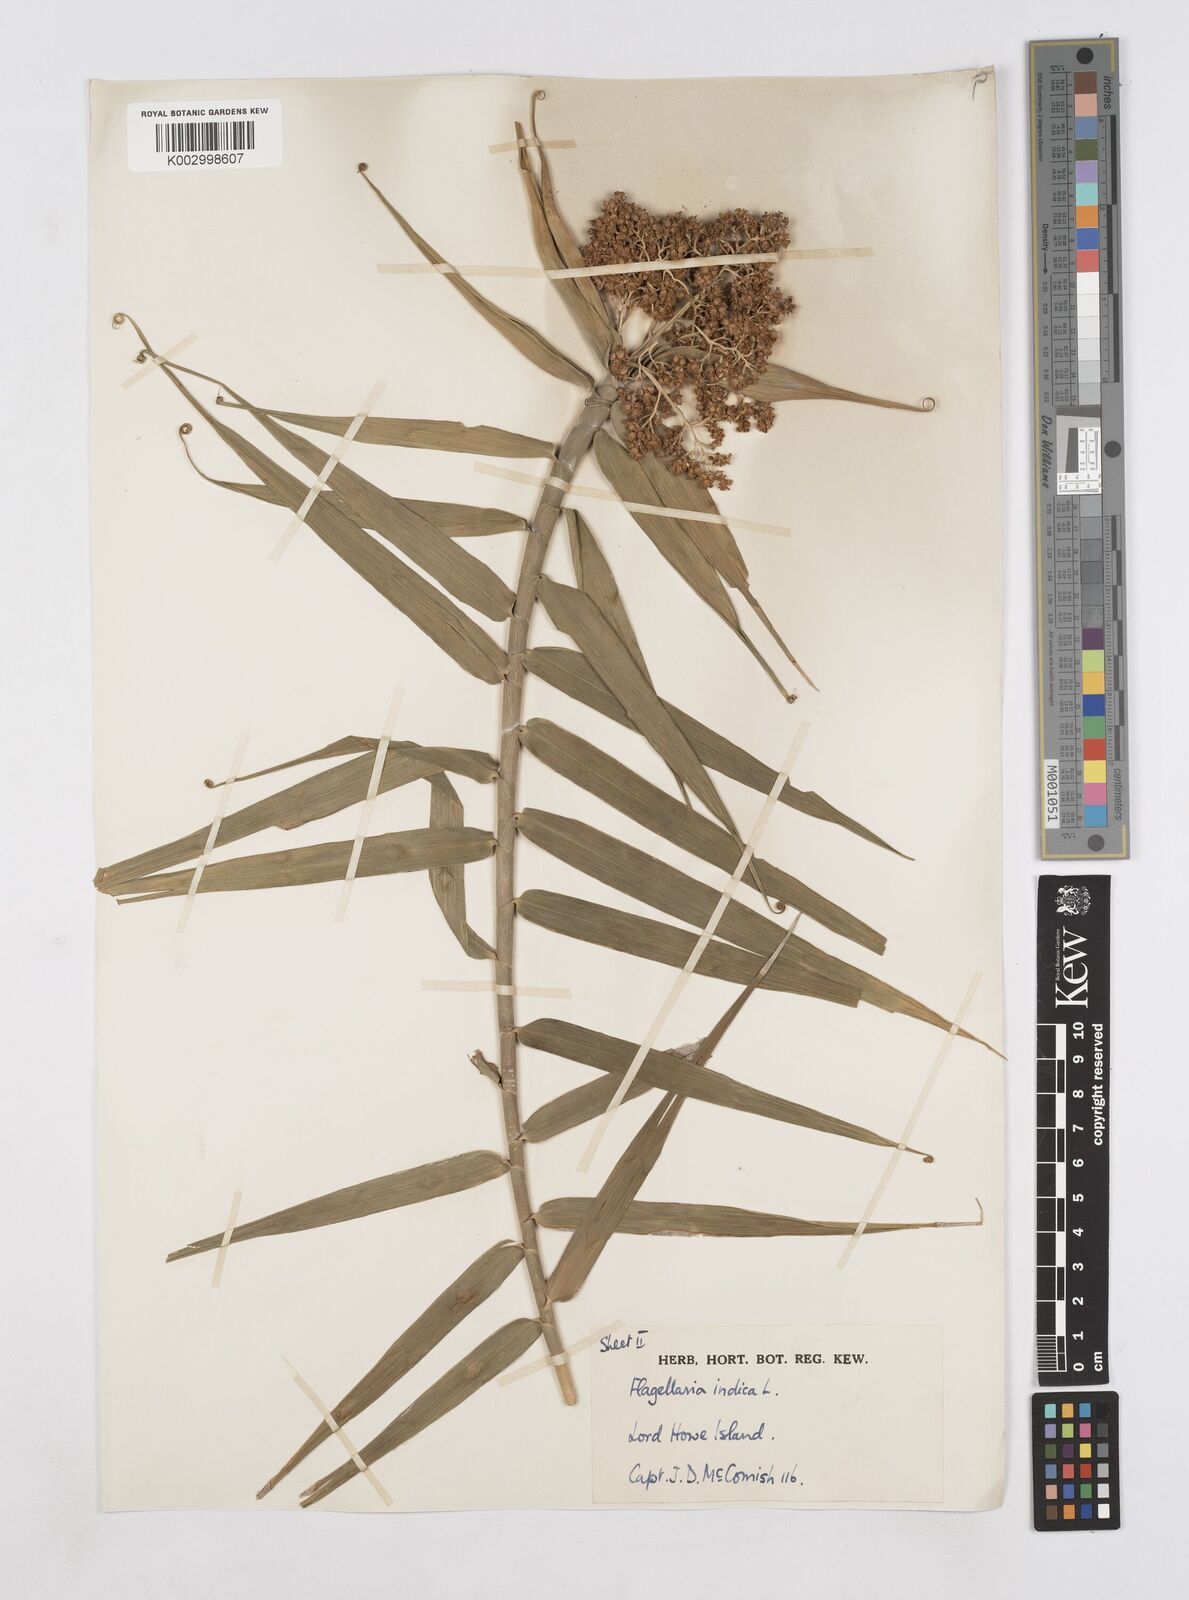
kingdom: Plantae
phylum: Tracheophyta
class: Liliopsida
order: Poales
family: Flagellariaceae
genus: Flagellaria
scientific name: Flagellaria indica
